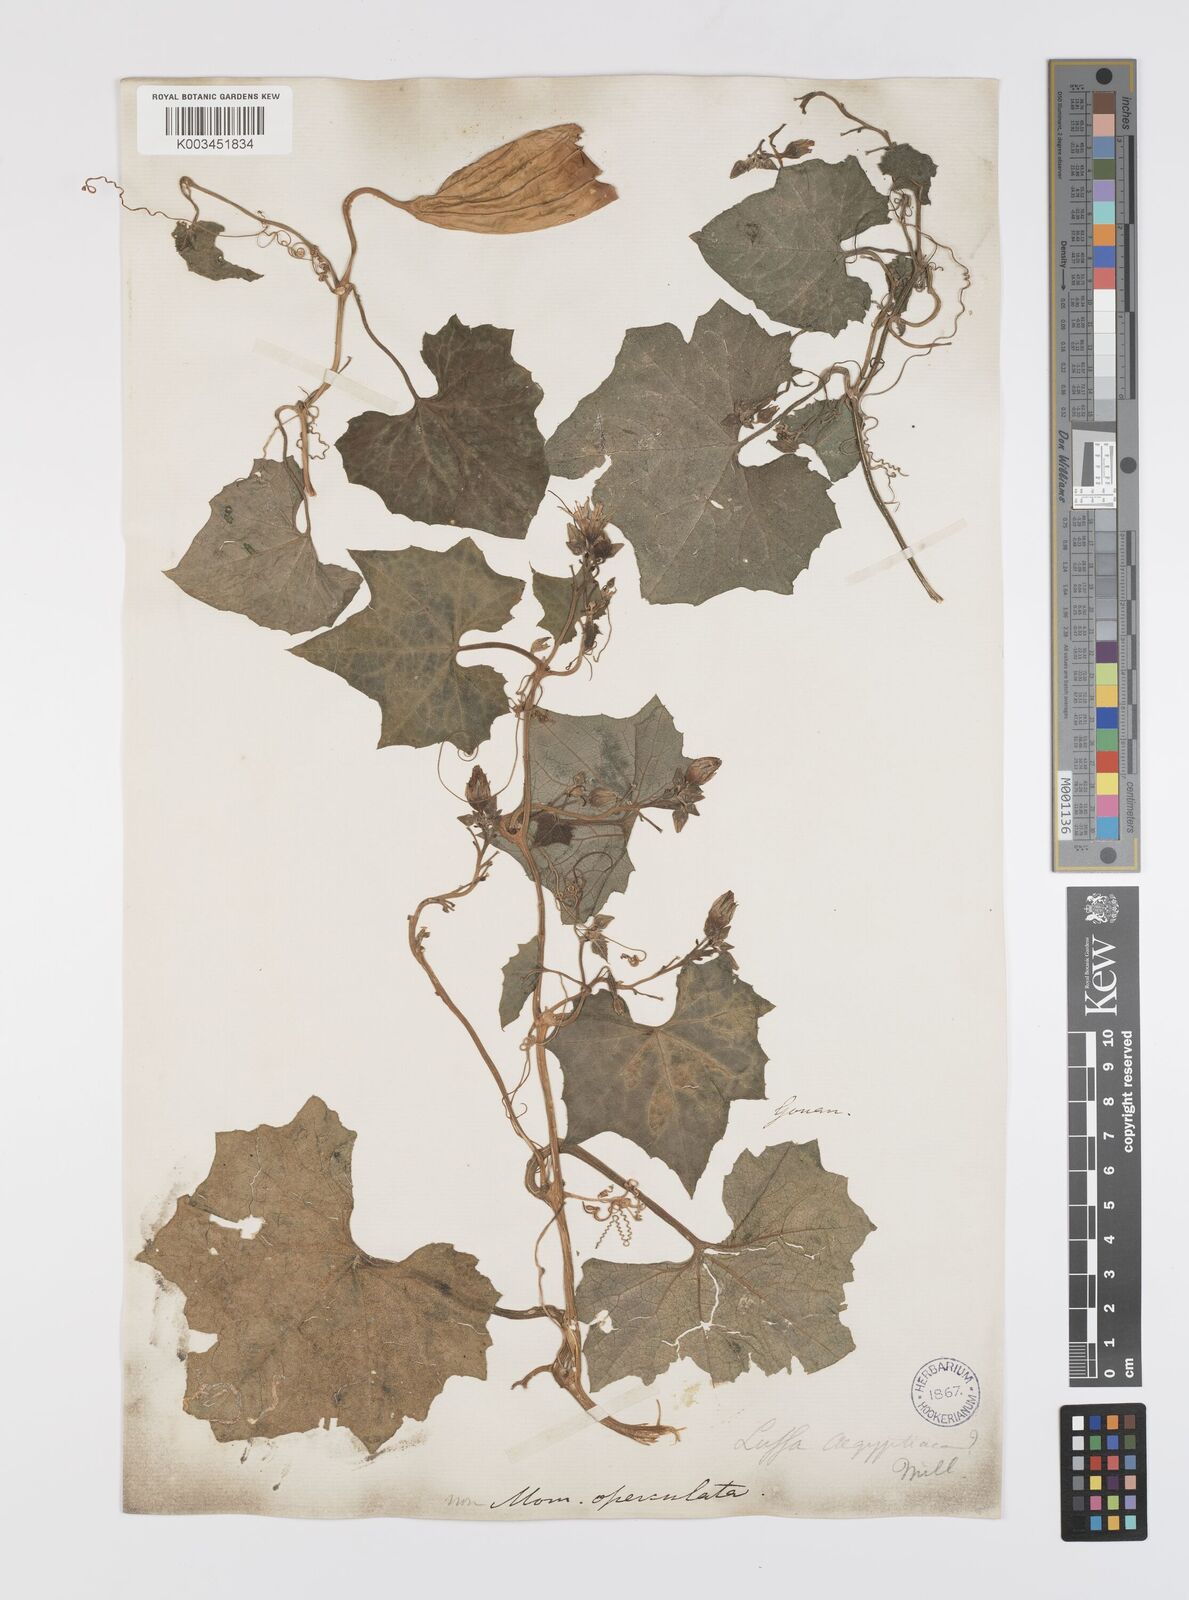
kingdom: Plantae
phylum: Tracheophyta
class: Magnoliopsida
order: Cucurbitales
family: Cucurbitaceae
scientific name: Cucurbitaceae
